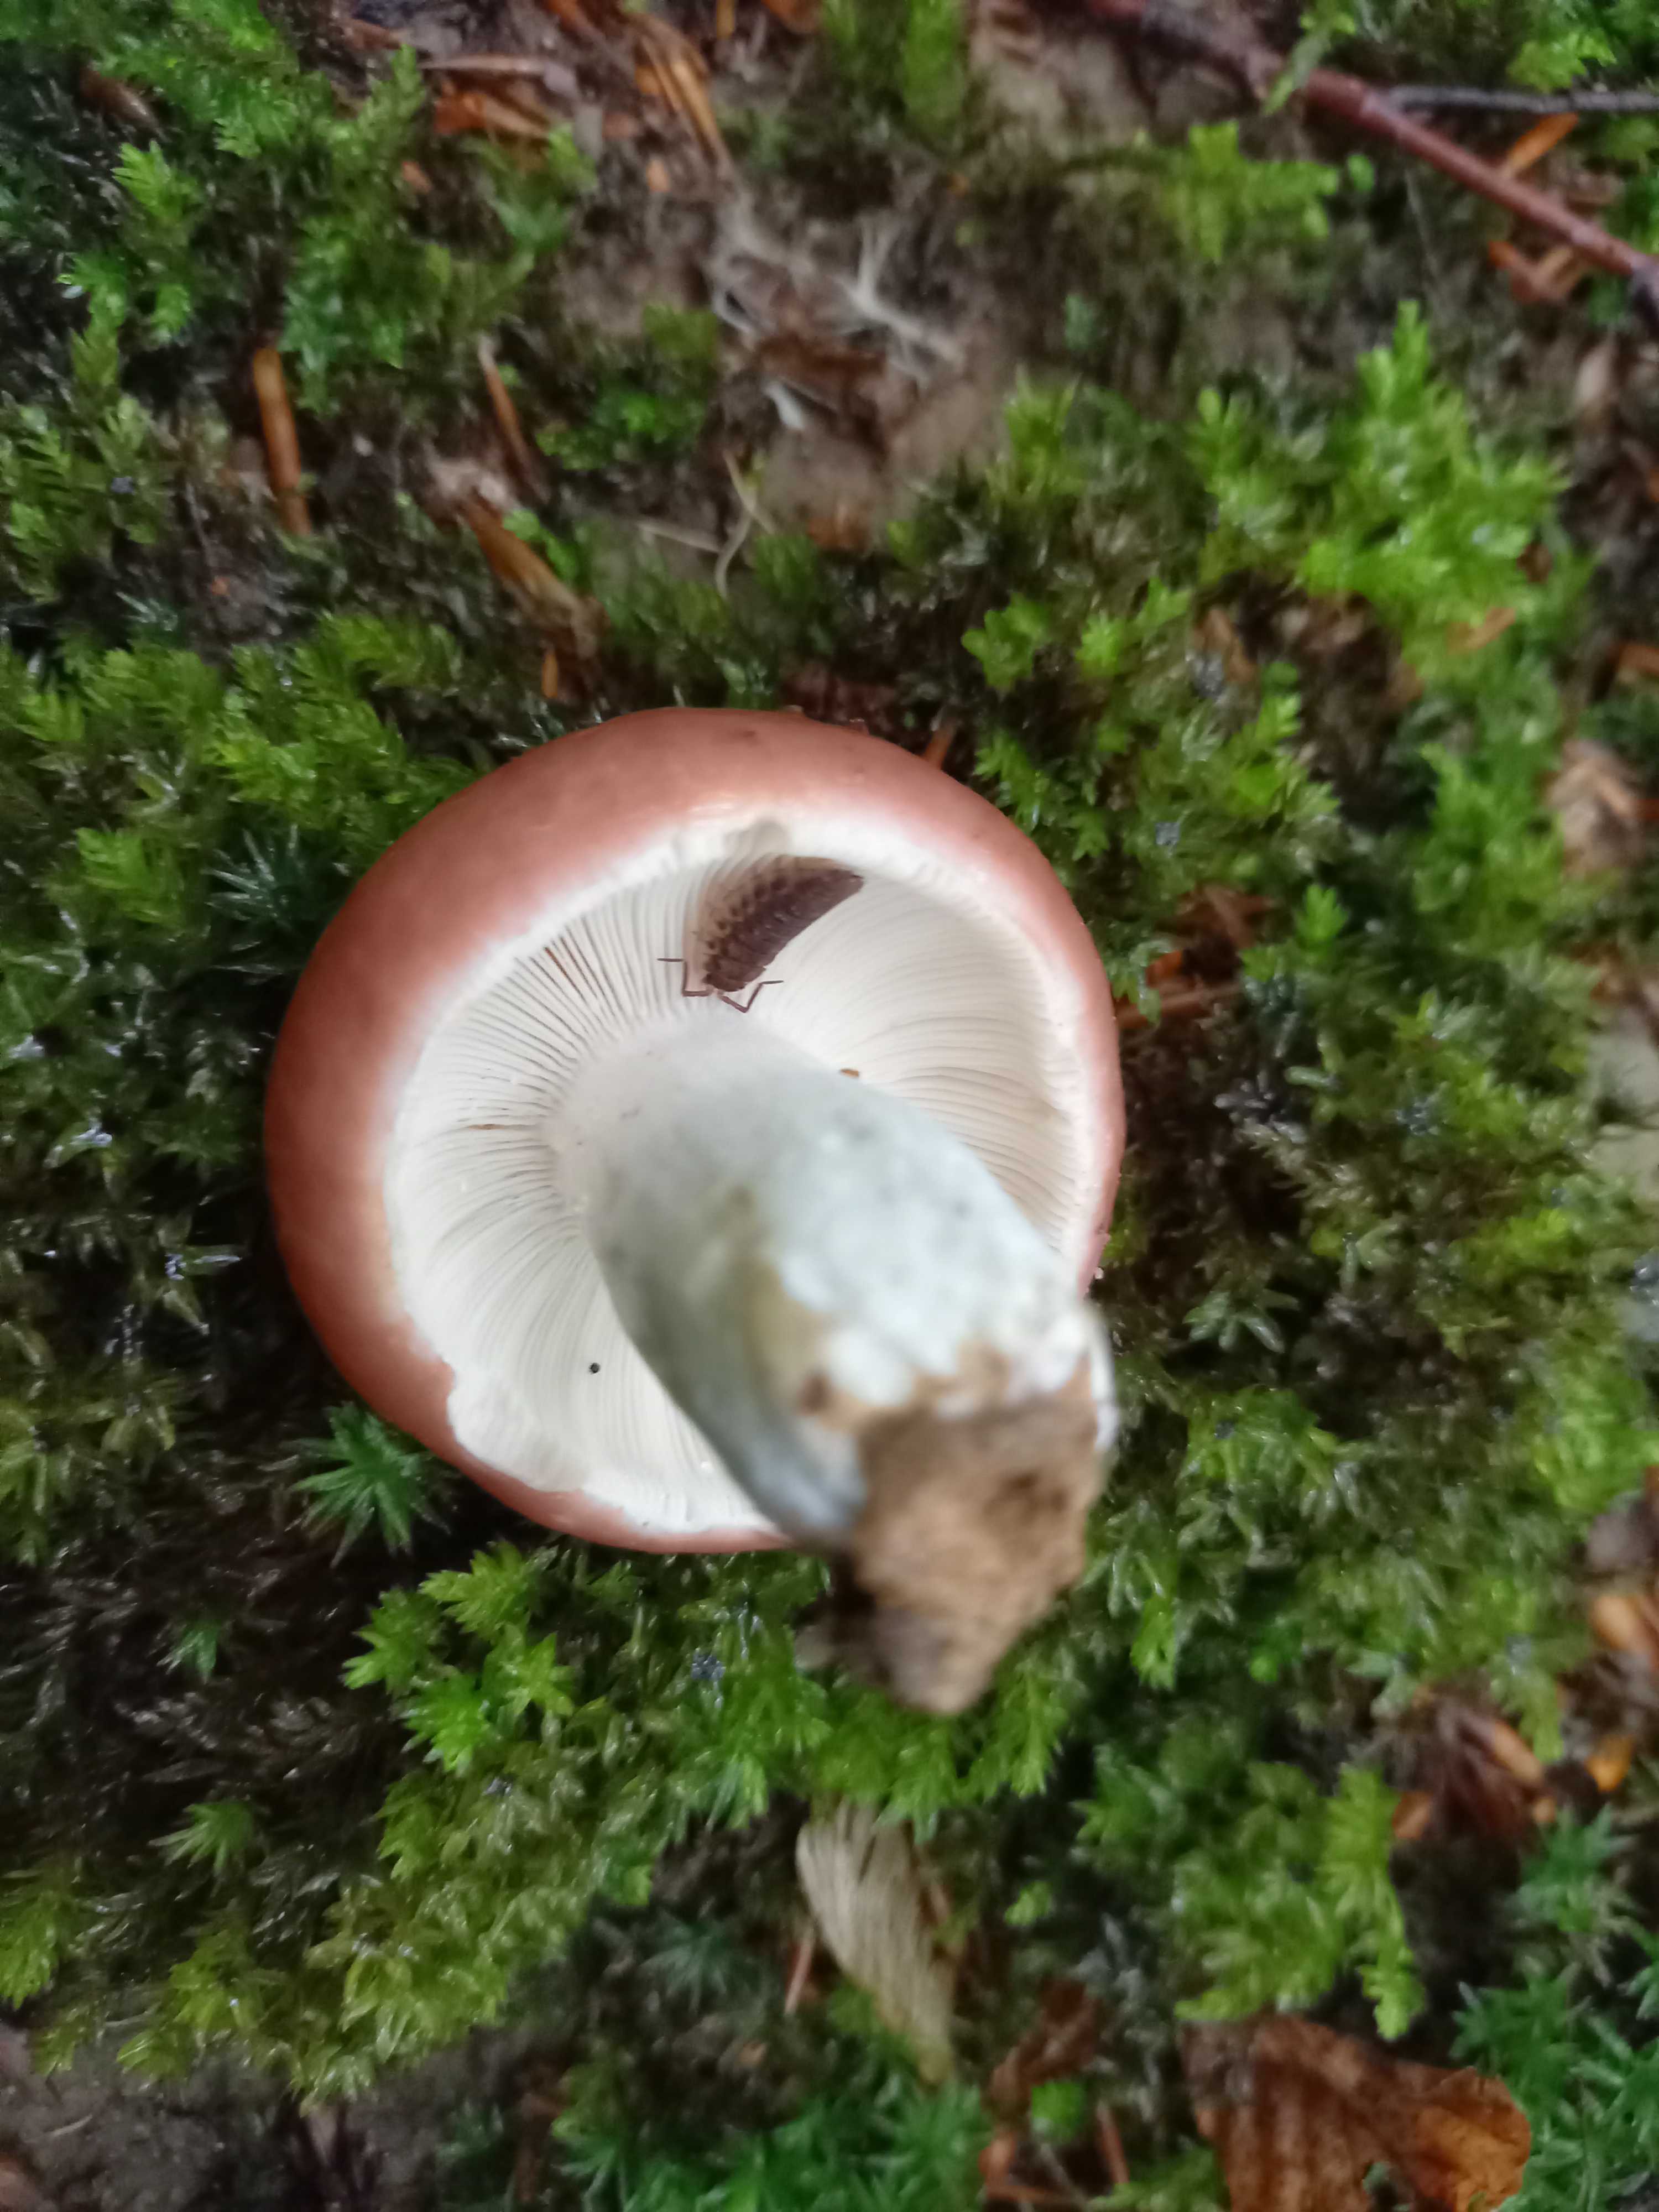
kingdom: Fungi
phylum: Basidiomycota
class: Agaricomycetes
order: Russulales
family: Russulaceae
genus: Russula
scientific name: Russula vesca
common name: spiselig skørhat
